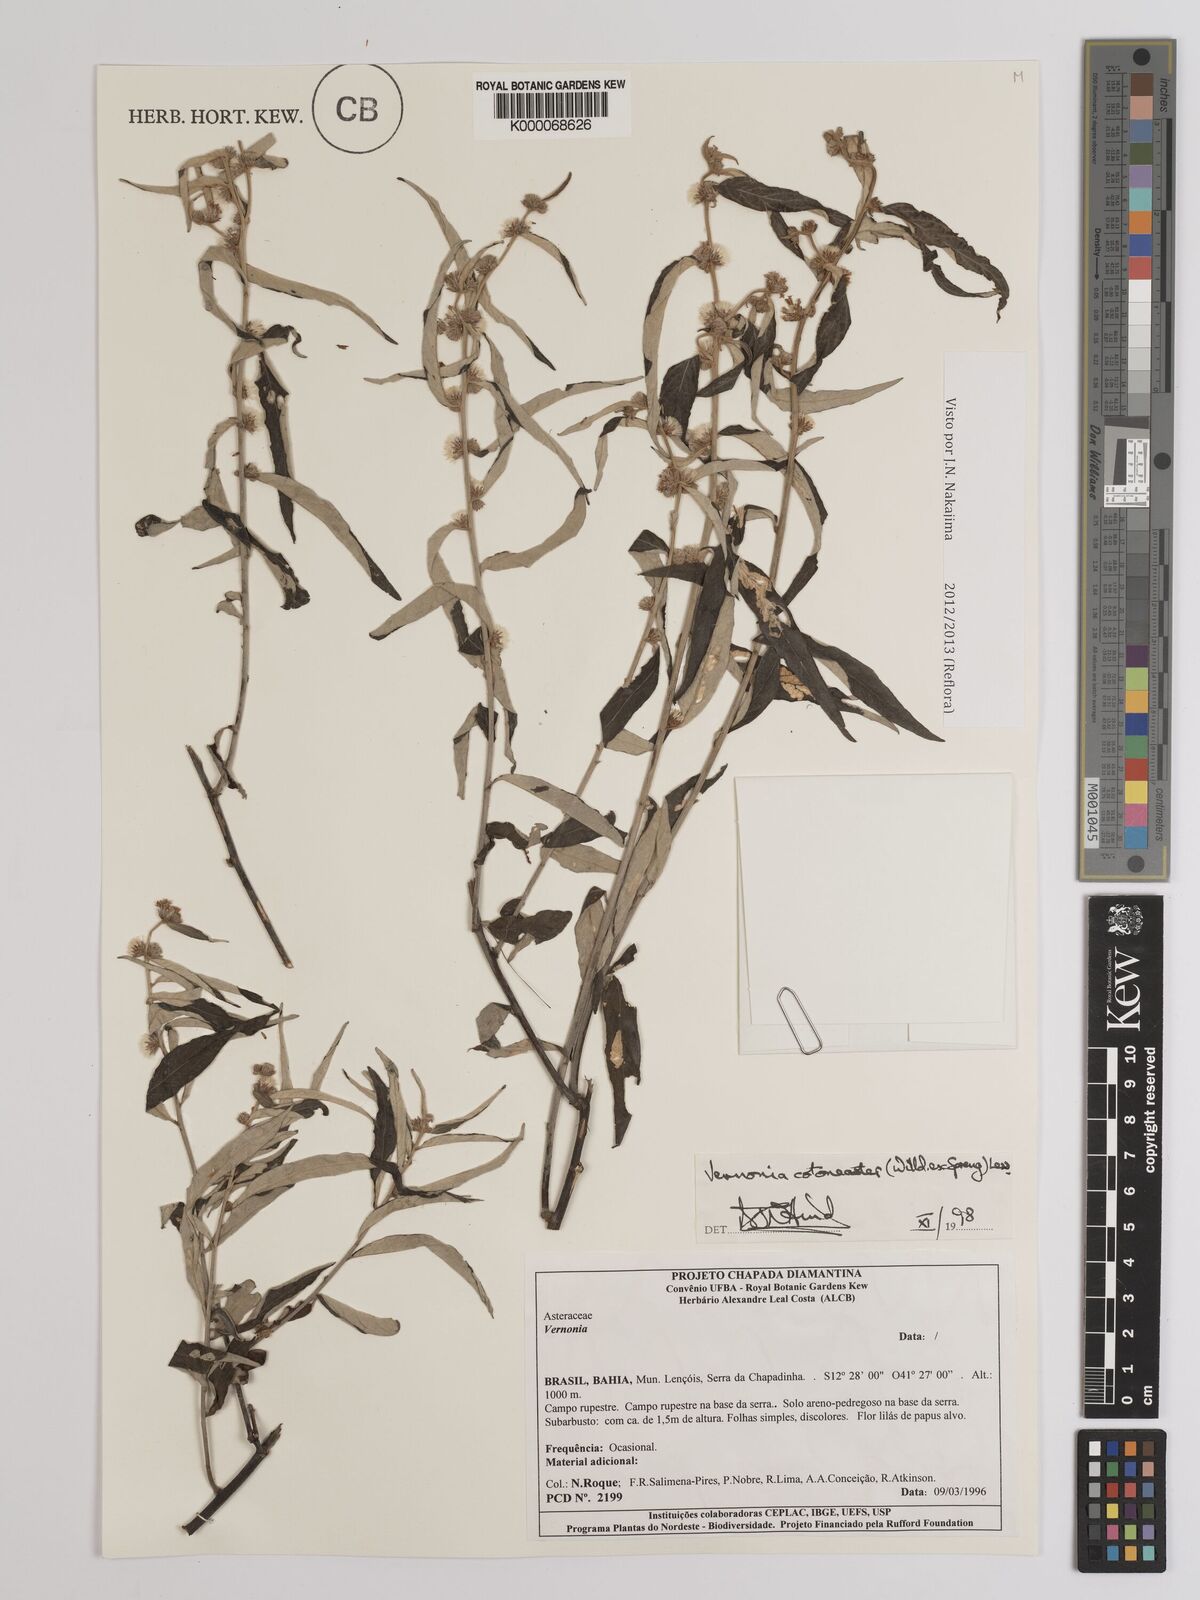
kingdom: Plantae
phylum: Tracheophyta
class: Magnoliopsida
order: Asterales
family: Asteraceae
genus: Lepidaploa
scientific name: Lepidaploa cotoneaster
